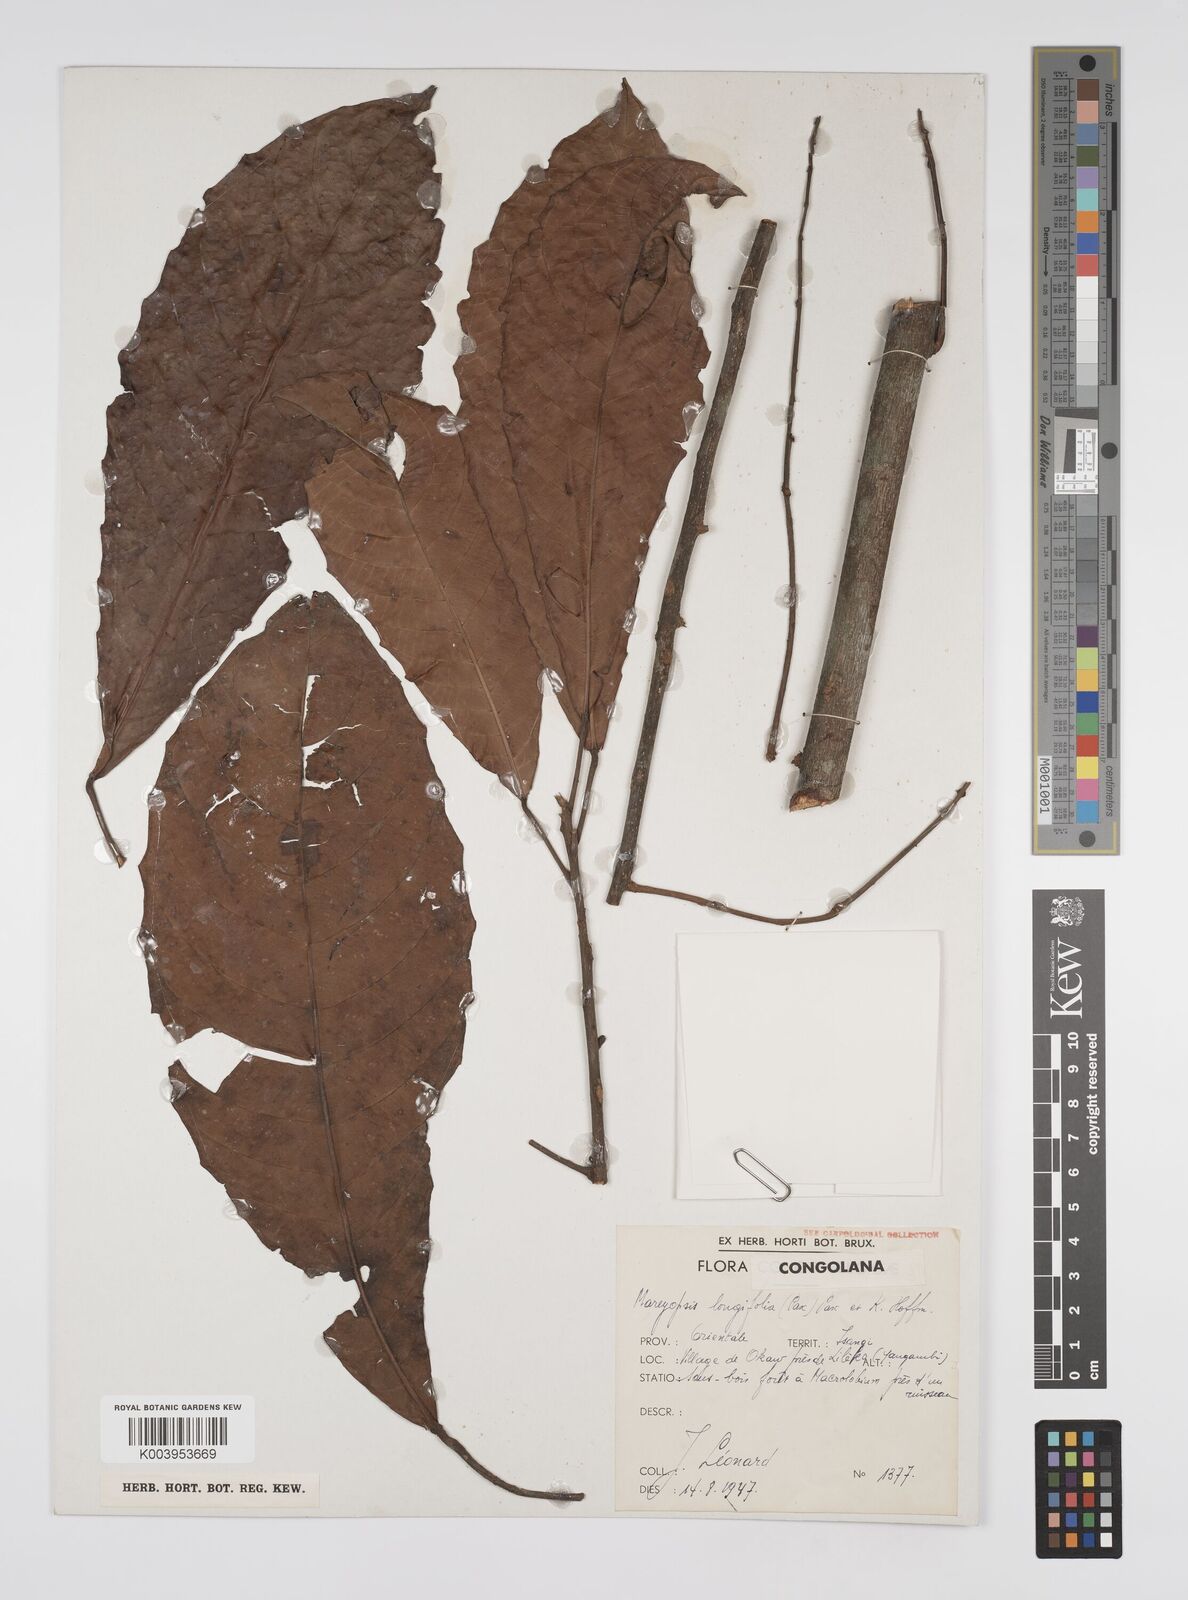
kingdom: Plantae
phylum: Tracheophyta
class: Magnoliopsida
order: Malpighiales
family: Euphorbiaceae
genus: Mareyopsis
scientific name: Mareyopsis longifolia
